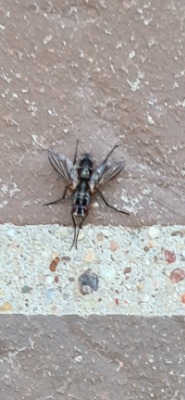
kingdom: Animalia
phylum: Arthropoda
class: Insecta
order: Diptera
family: Tachinidae
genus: Mintho
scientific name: Mintho rufiventris
